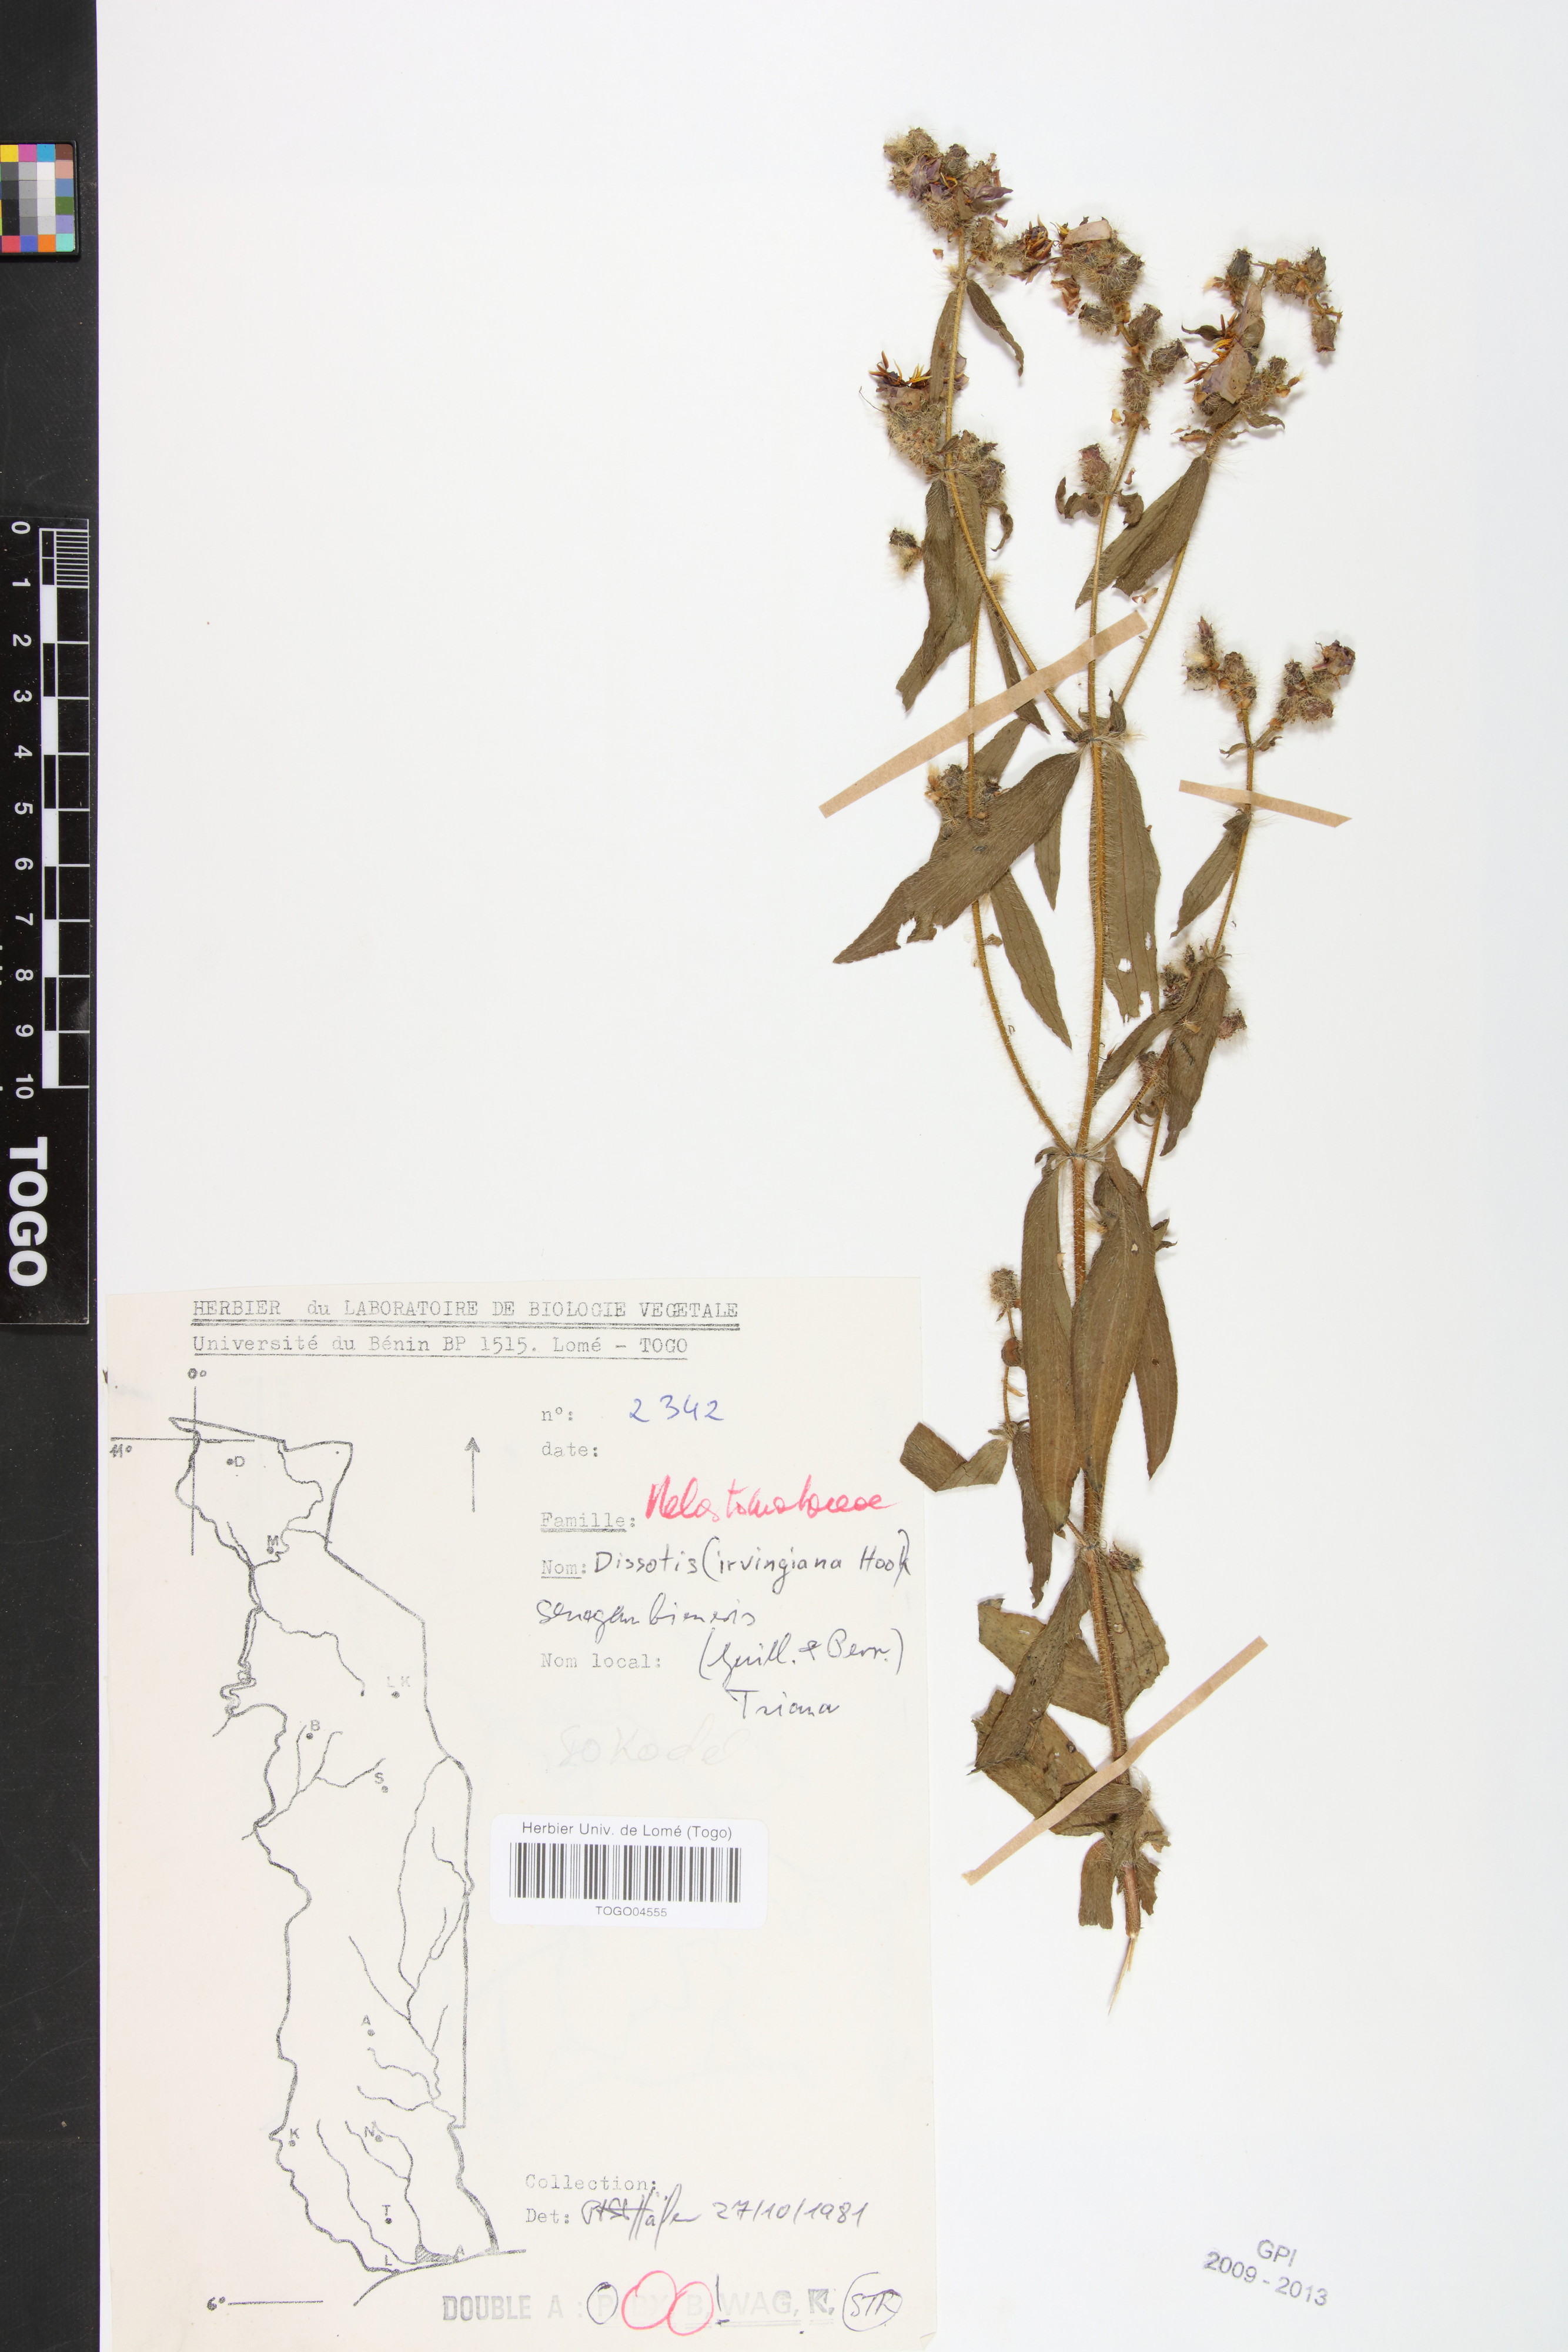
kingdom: Plantae
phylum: Tracheophyta
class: Magnoliopsida
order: Myrtales
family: Melastomataceae
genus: Antherotoma
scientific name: Antherotoma irvingiana
